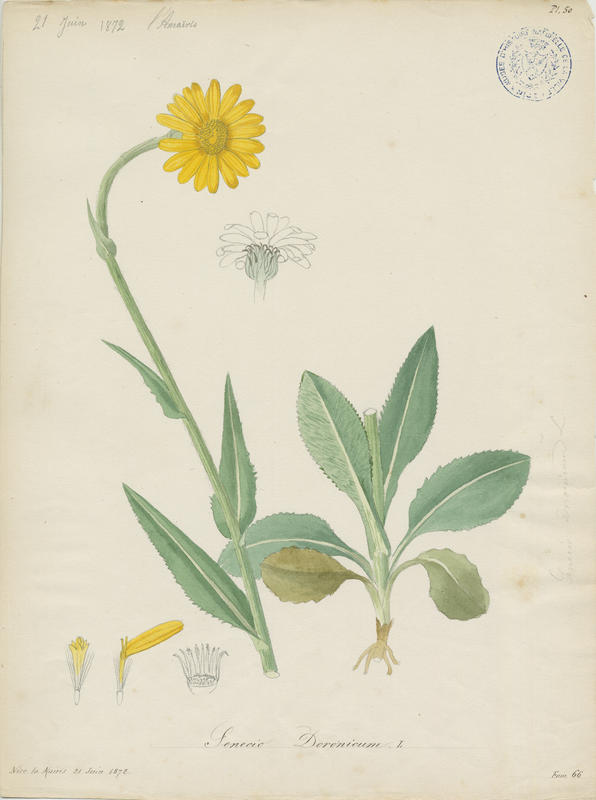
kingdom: Plantae
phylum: Tracheophyta
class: Magnoliopsida
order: Asterales
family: Asteraceae
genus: Senecio
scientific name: Senecio doronicum
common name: Chamois ragwort
